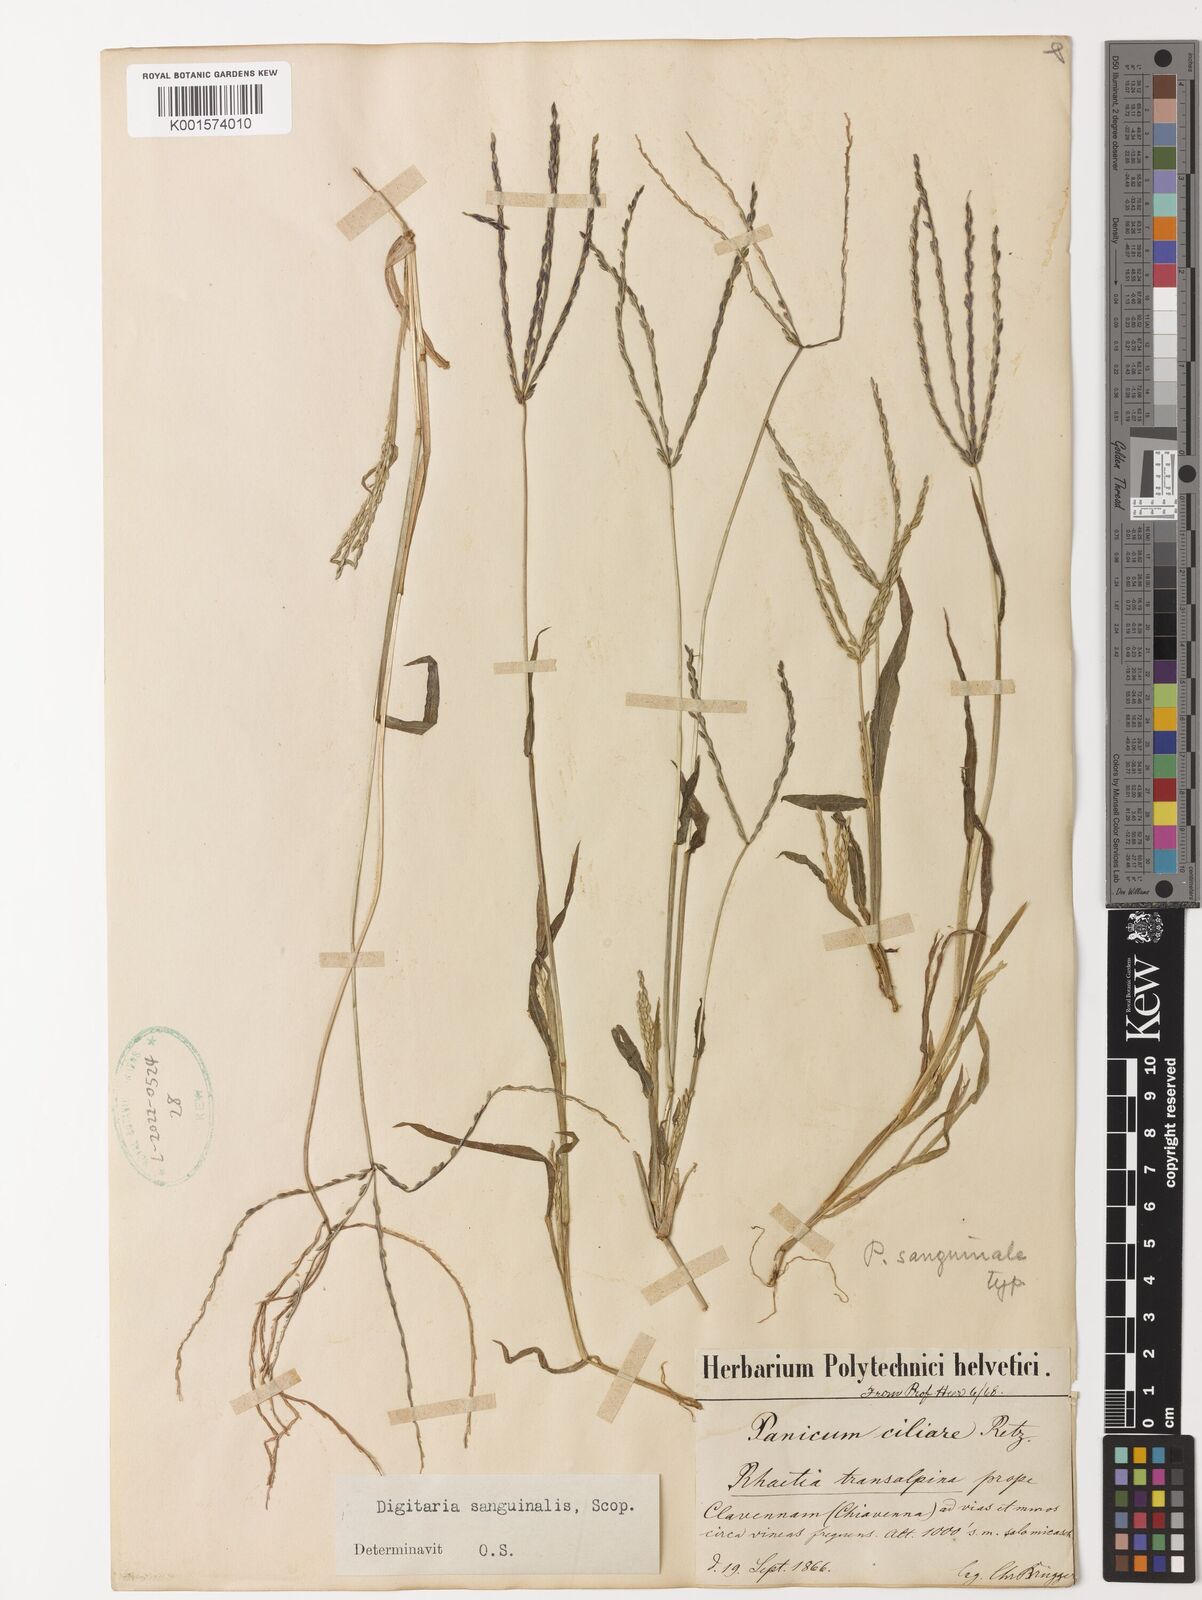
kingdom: Plantae
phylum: Tracheophyta
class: Liliopsida
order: Poales
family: Poaceae
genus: Digitaria
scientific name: Digitaria sanguinalis
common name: Hairy crabgrass
